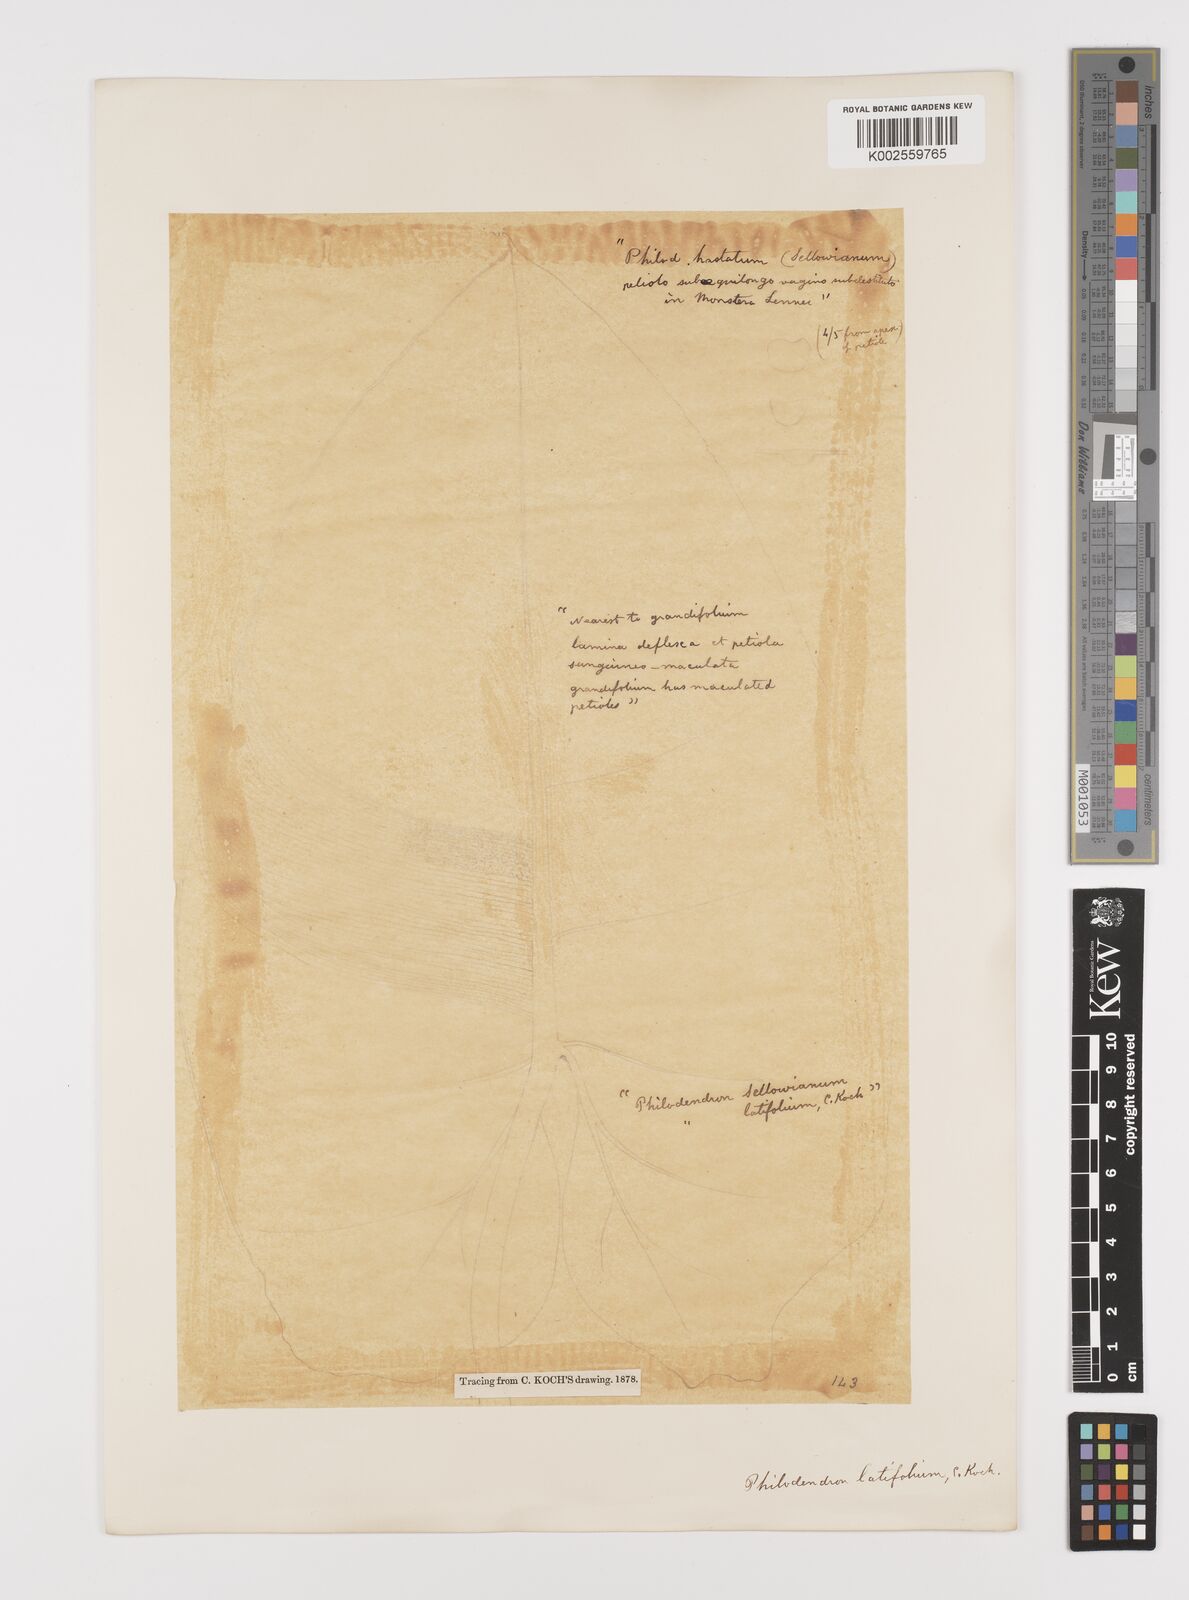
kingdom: Plantae
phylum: Tracheophyta
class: Liliopsida
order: Alismatales
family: Araceae
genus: Philodendron
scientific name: Philodendron latifolium
